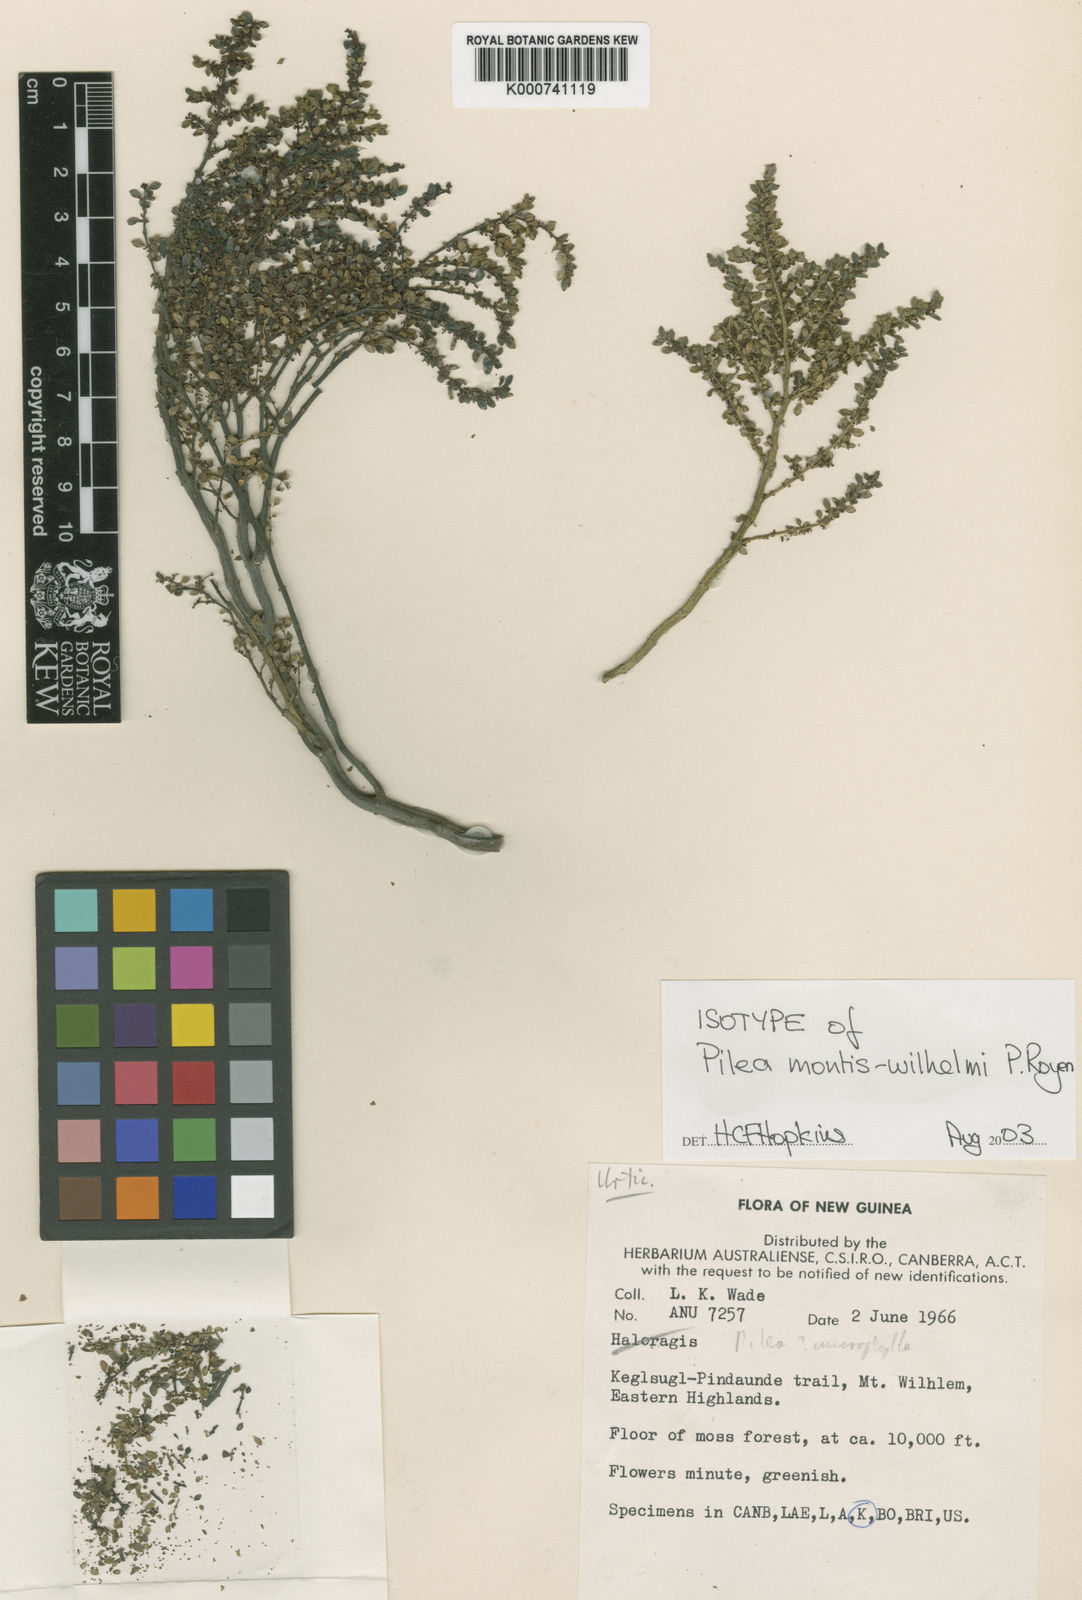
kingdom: Plantae
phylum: Tracheophyta
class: Magnoliopsida
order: Rosales
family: Urticaceae
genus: Pilea
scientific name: Pilea montis-wilhelmi
